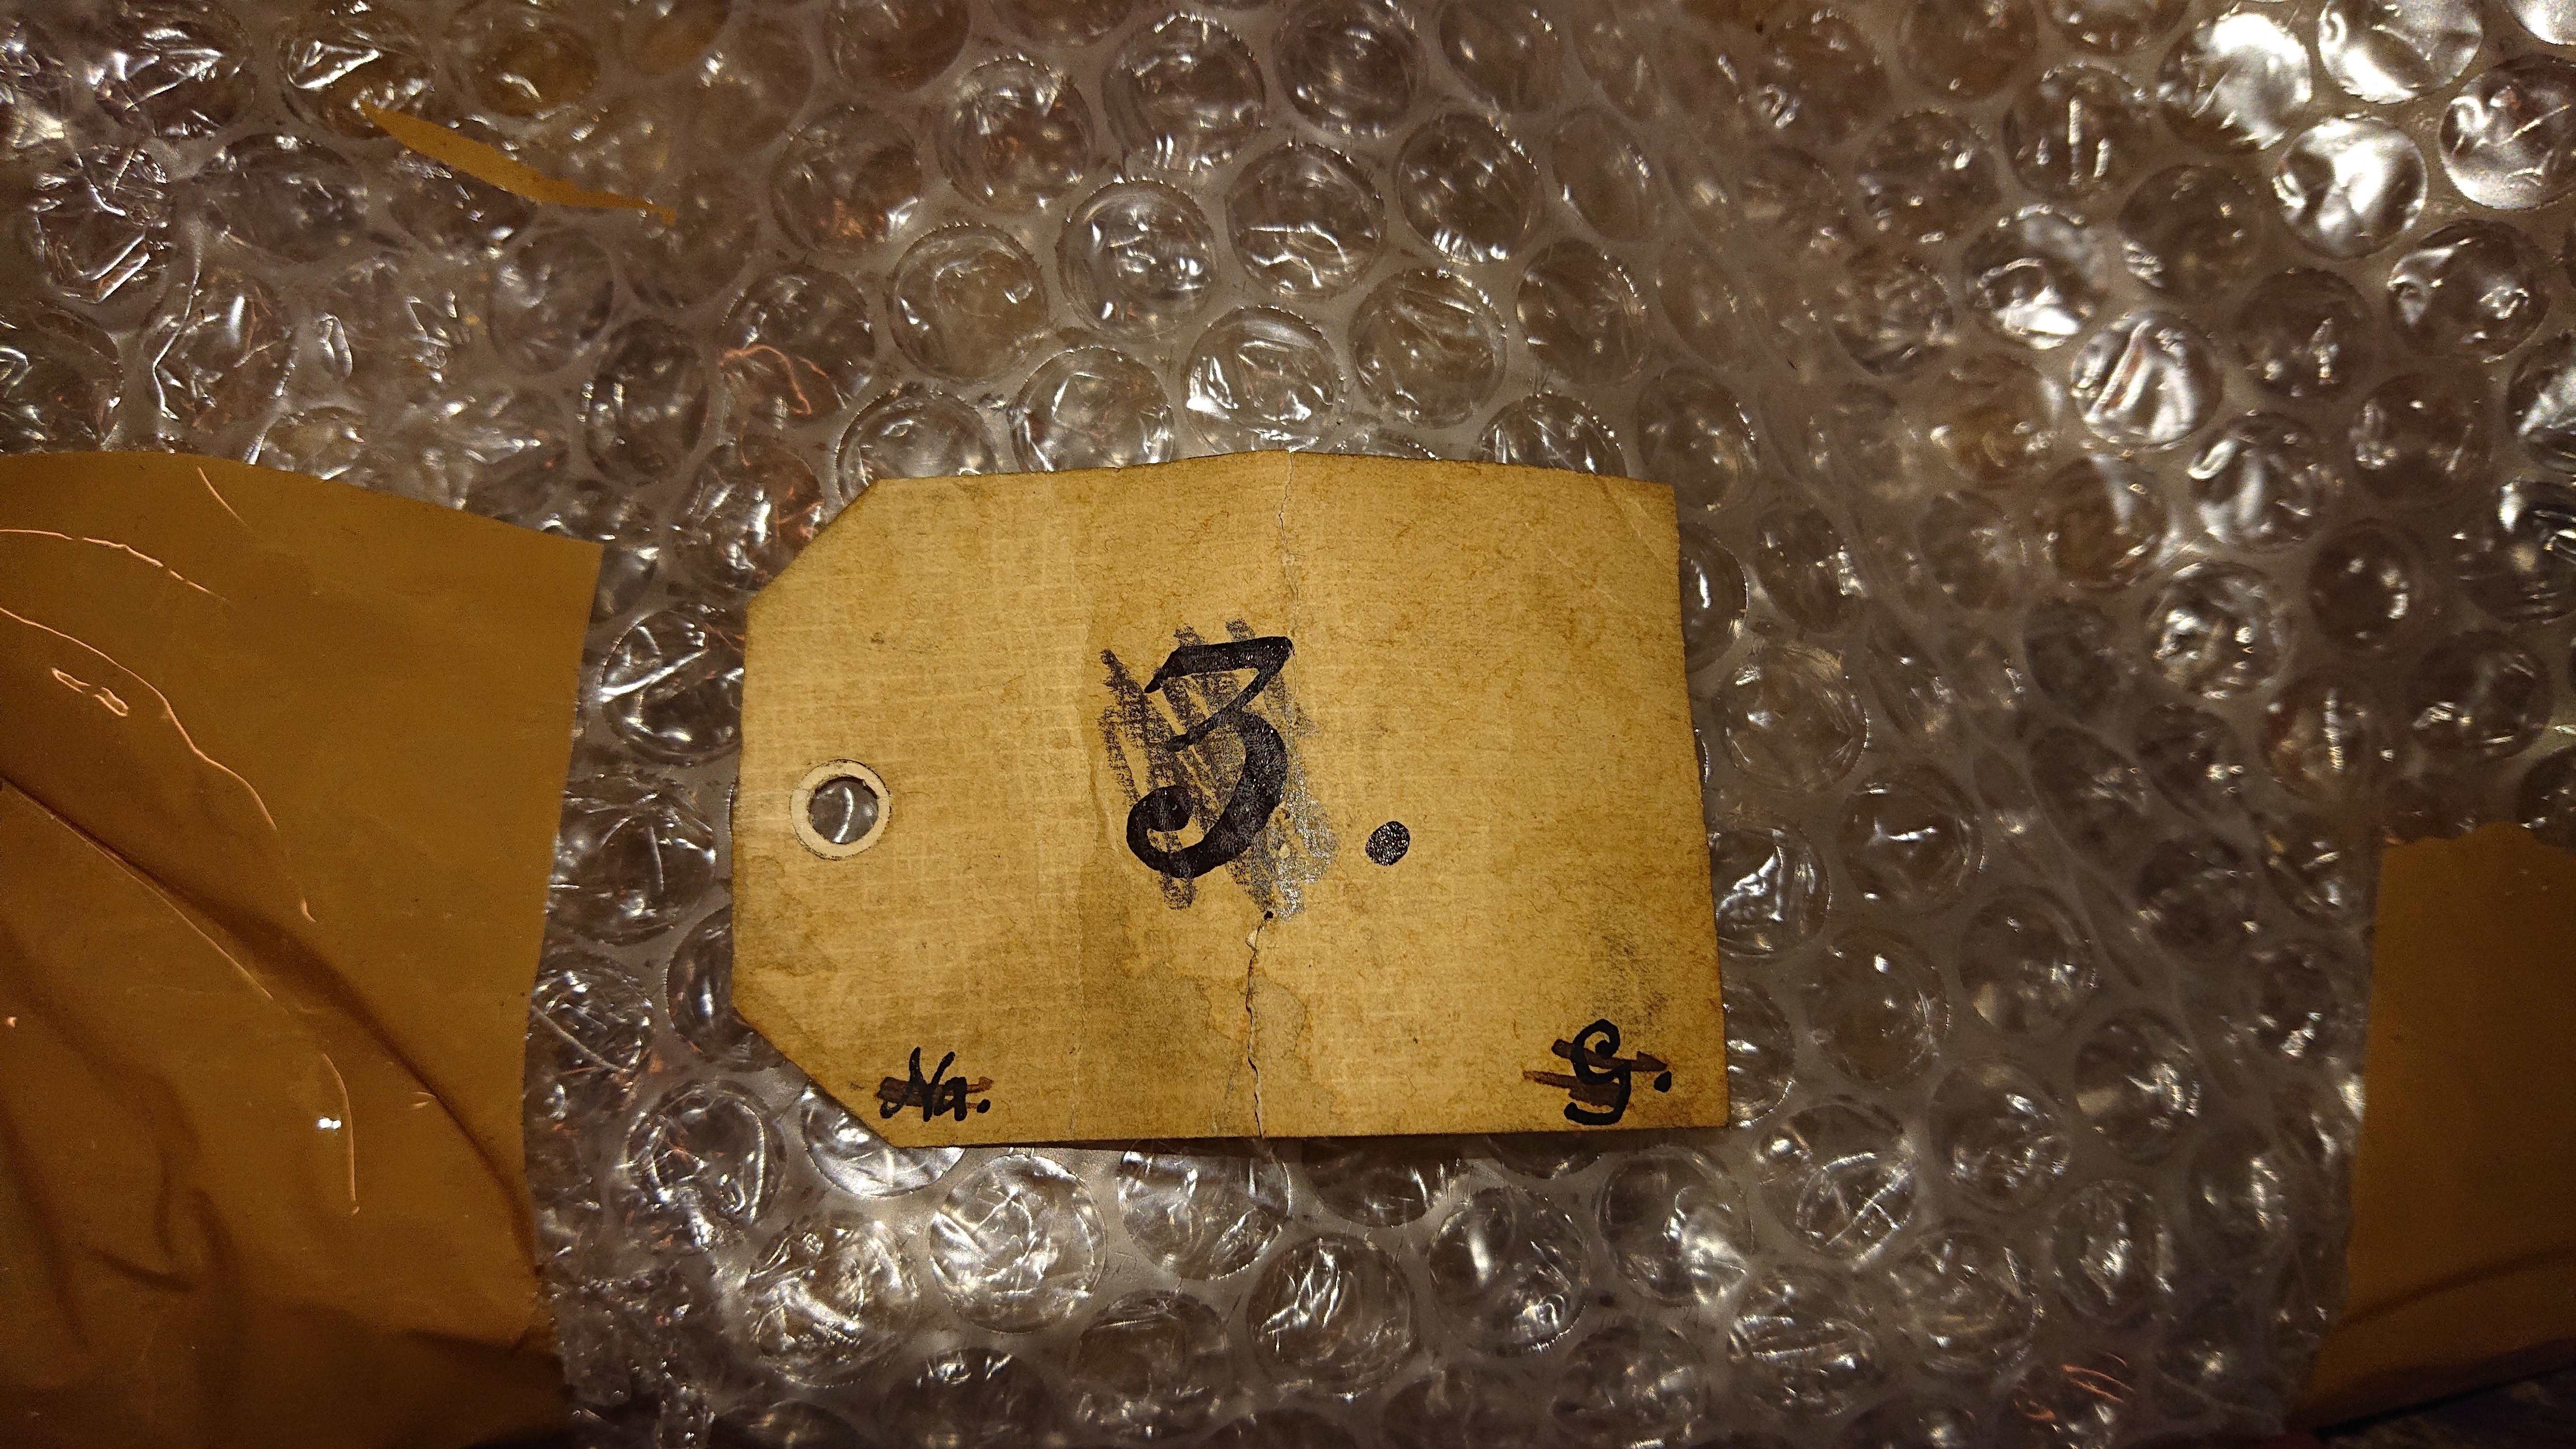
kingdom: Animalia
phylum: Chordata
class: Mammalia
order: Artiodactyla
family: Bovidae
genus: Bison
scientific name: Bison bison
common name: American bison
